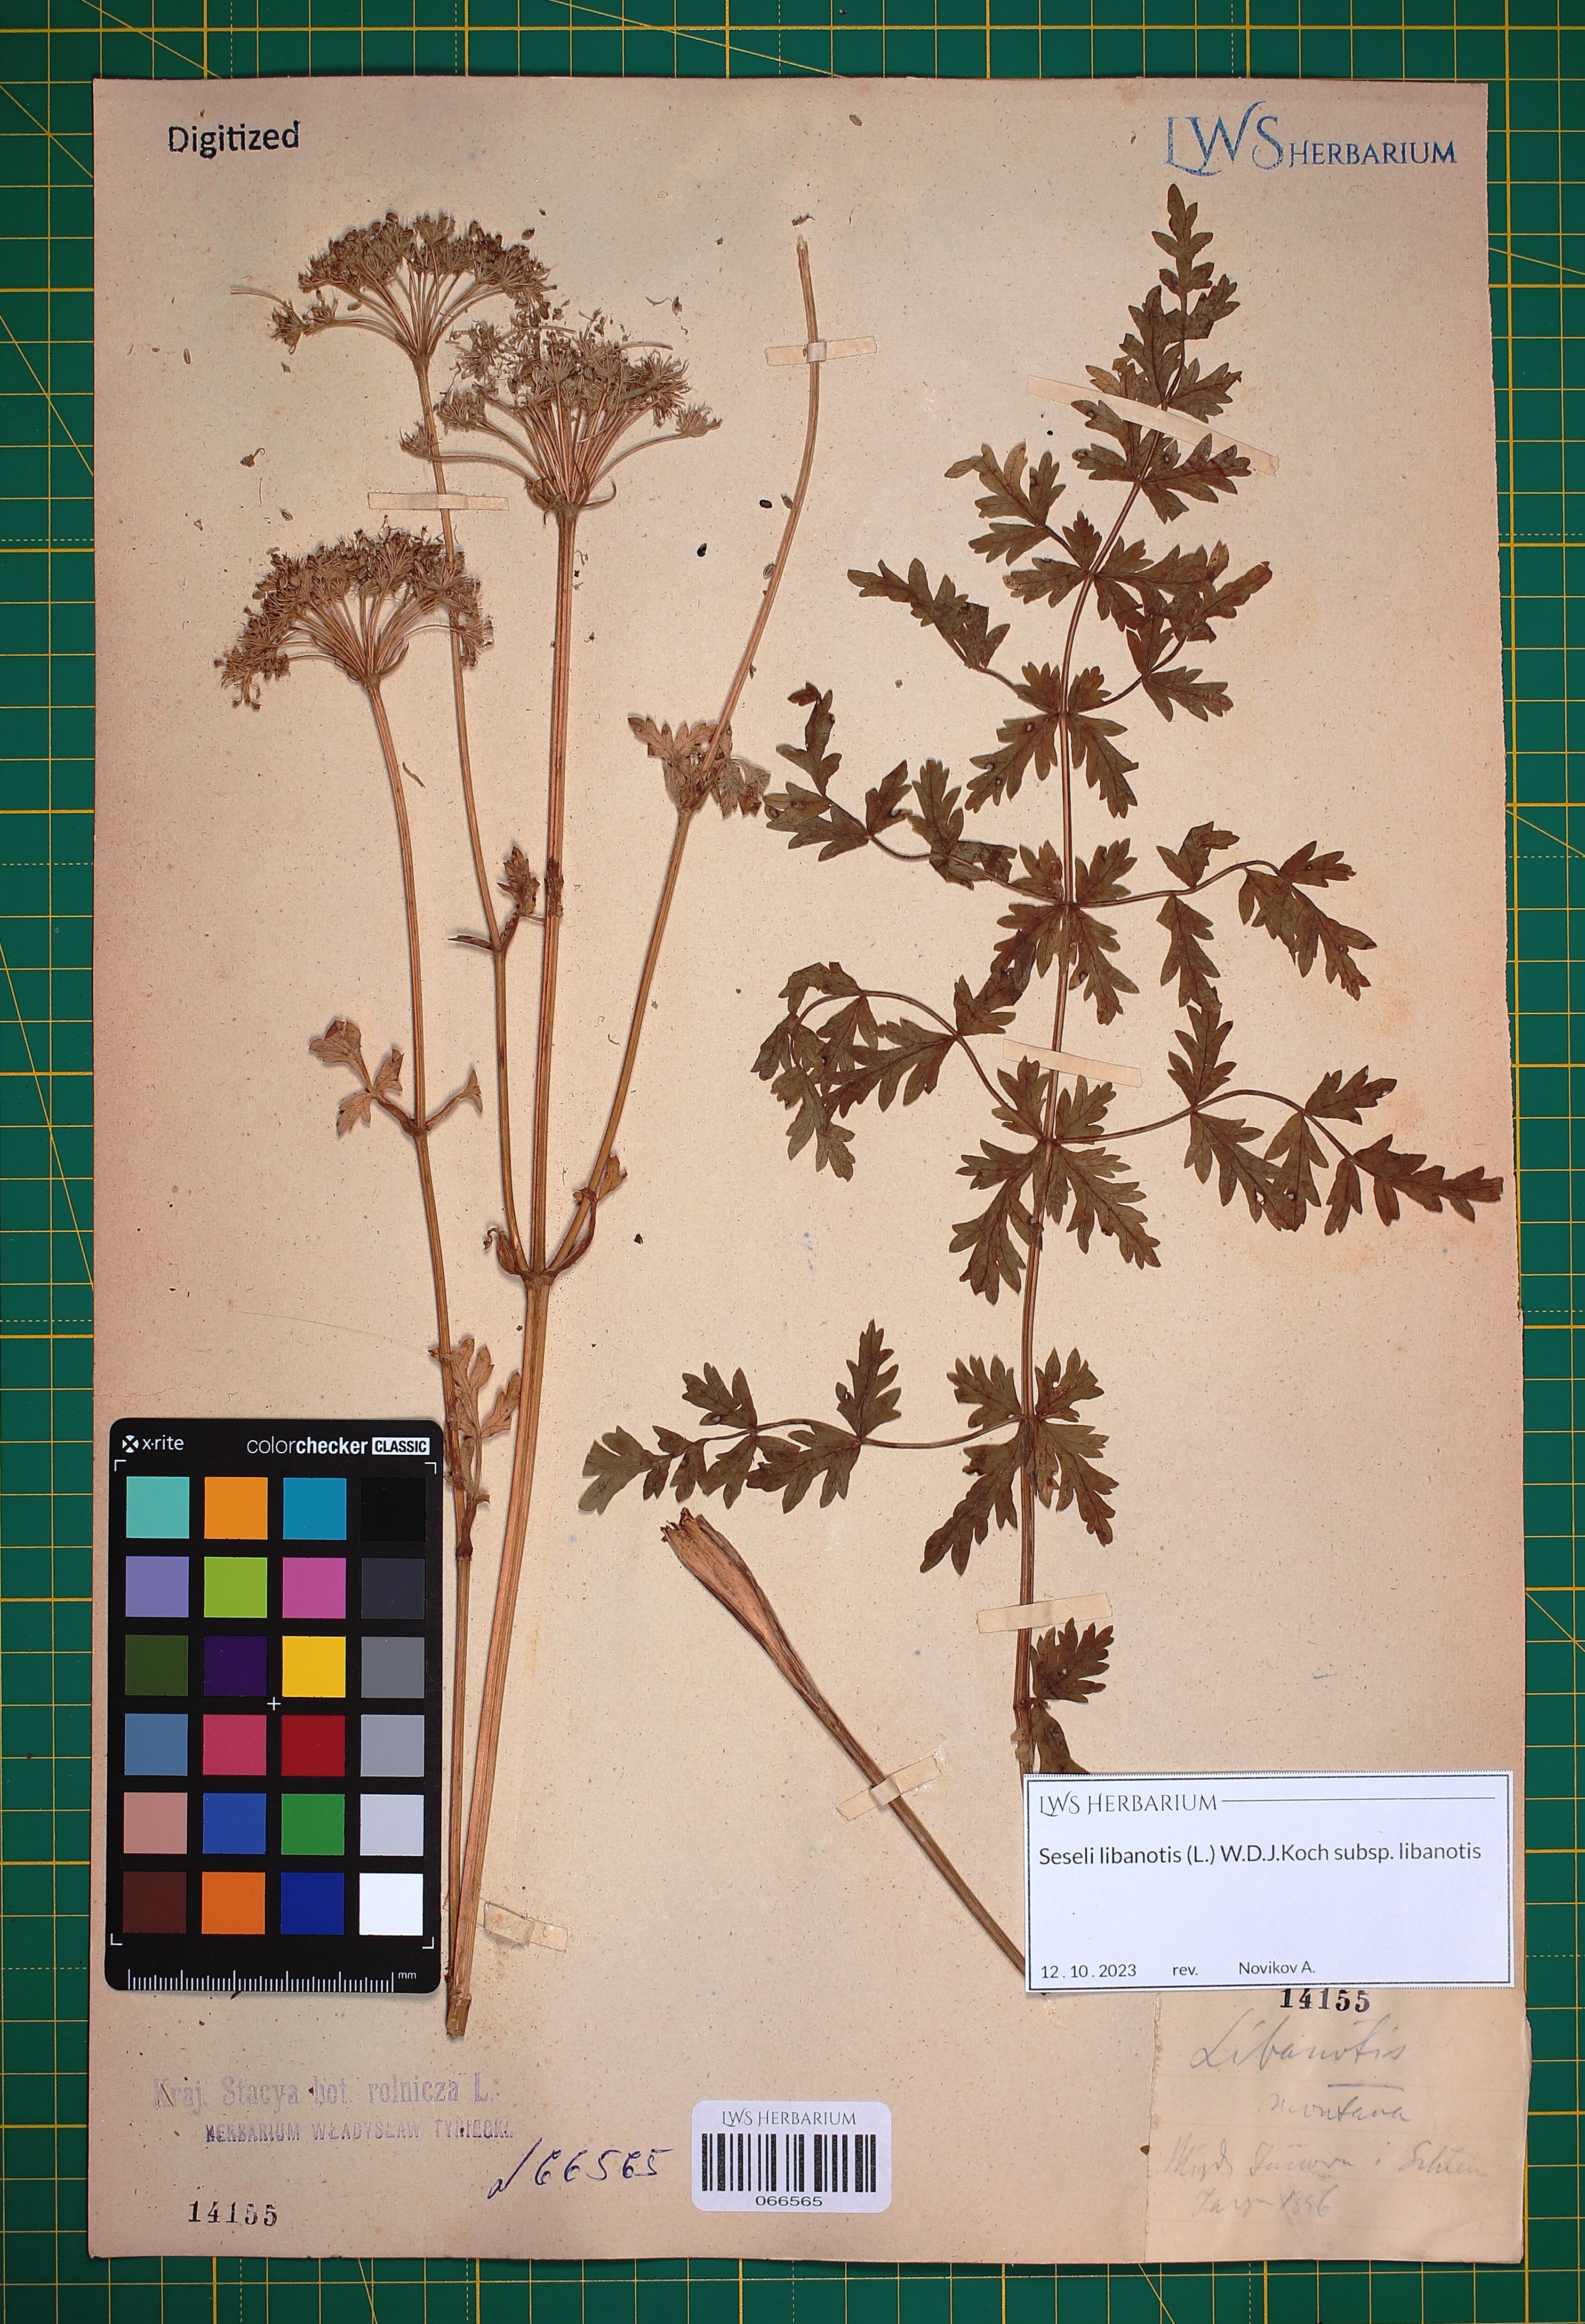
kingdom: Plantae
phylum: Tracheophyta
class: Magnoliopsida
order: Apiales
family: Apiaceae
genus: Seseli
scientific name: Seseli libanotis
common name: Mooncarrot
